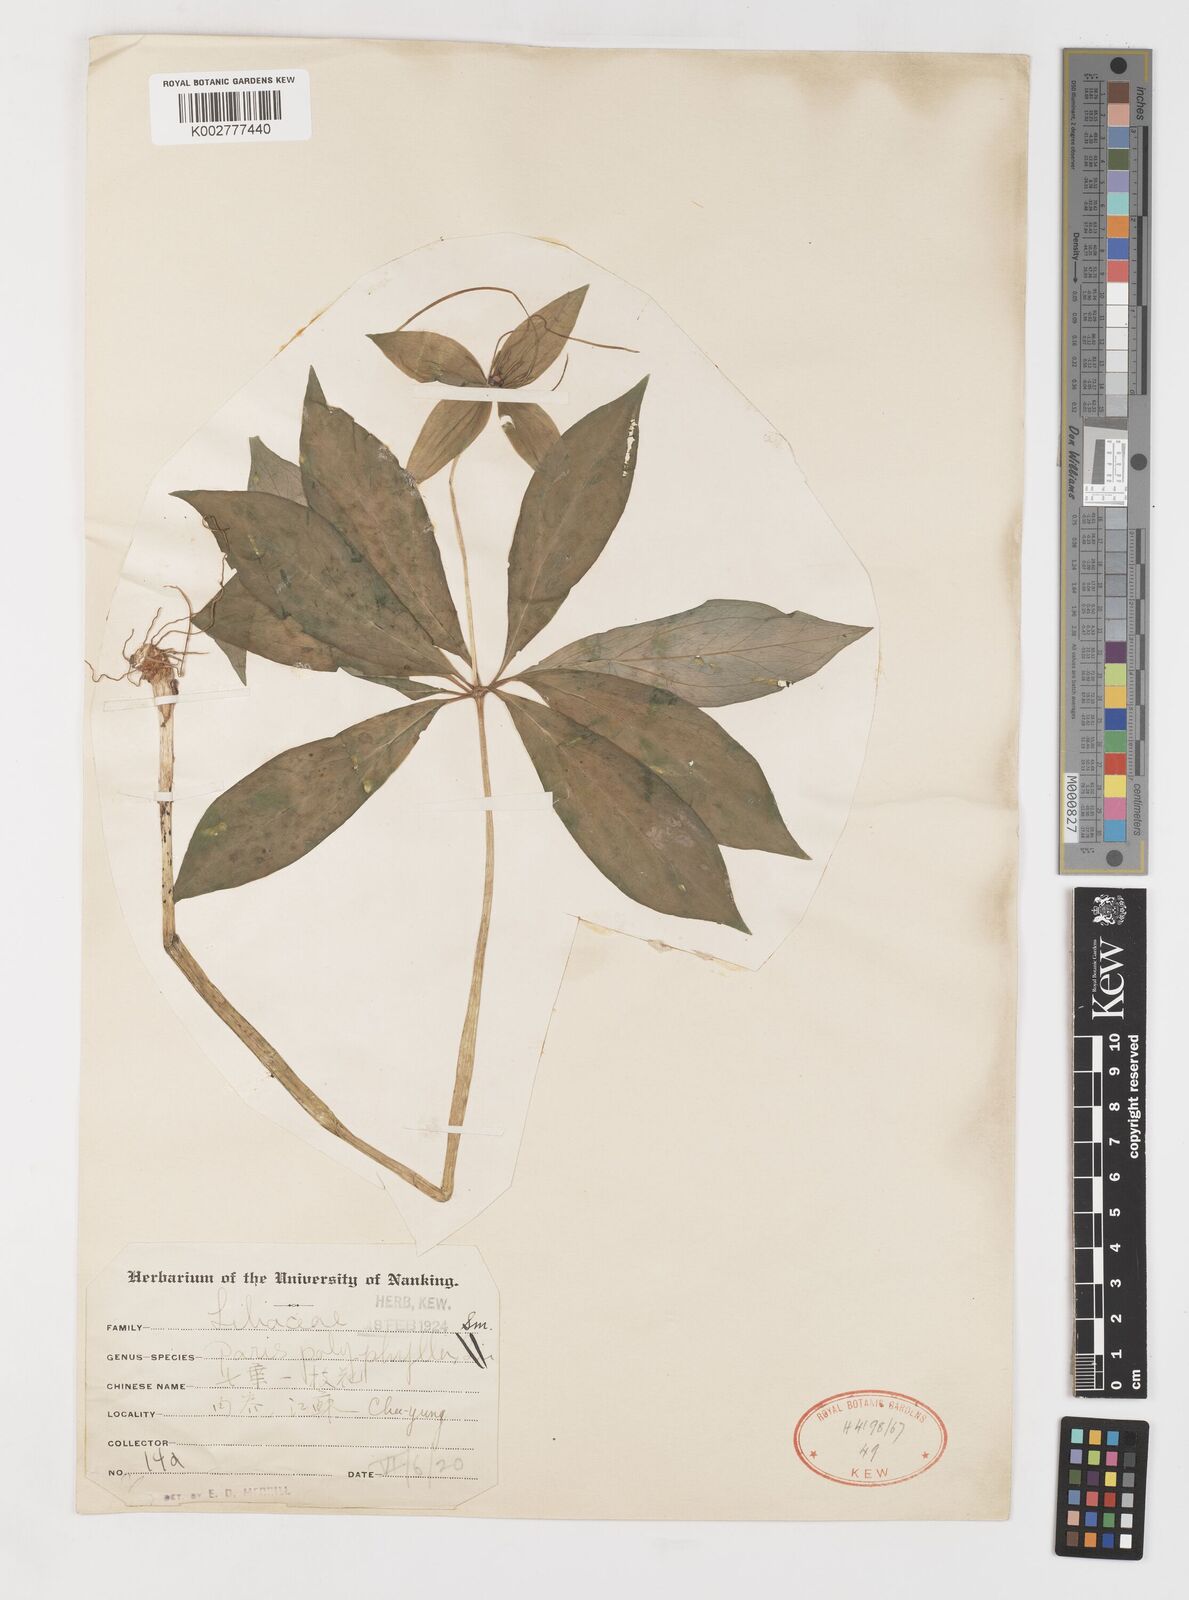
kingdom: Plantae
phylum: Tracheophyta
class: Liliopsida
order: Liliales
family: Melanthiaceae
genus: Paris
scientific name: Paris polyphylla
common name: Love apple
